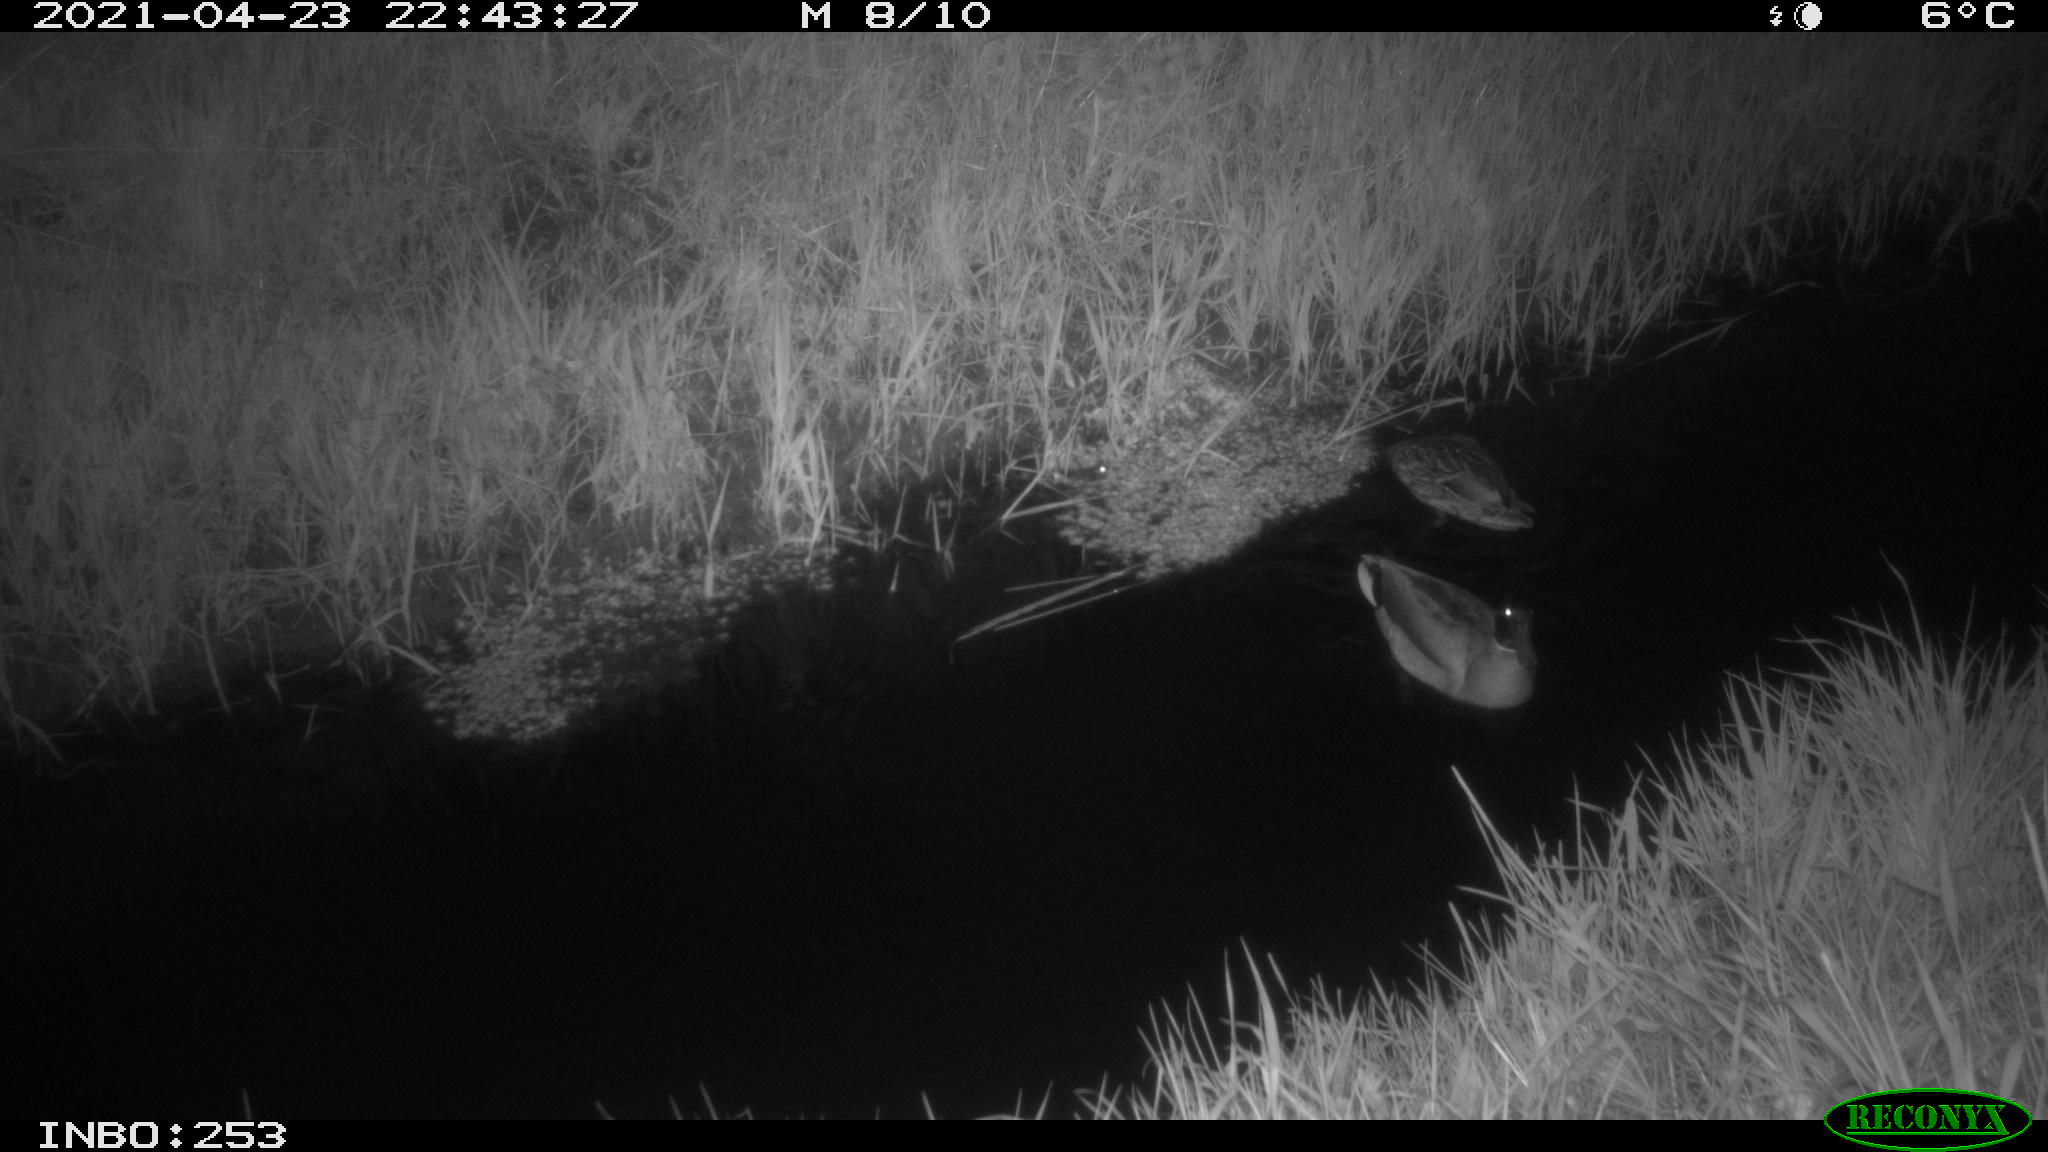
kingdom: Animalia
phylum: Chordata
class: Aves
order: Anseriformes
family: Anatidae
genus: Anas
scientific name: Anas platyrhynchos
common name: Mallard
